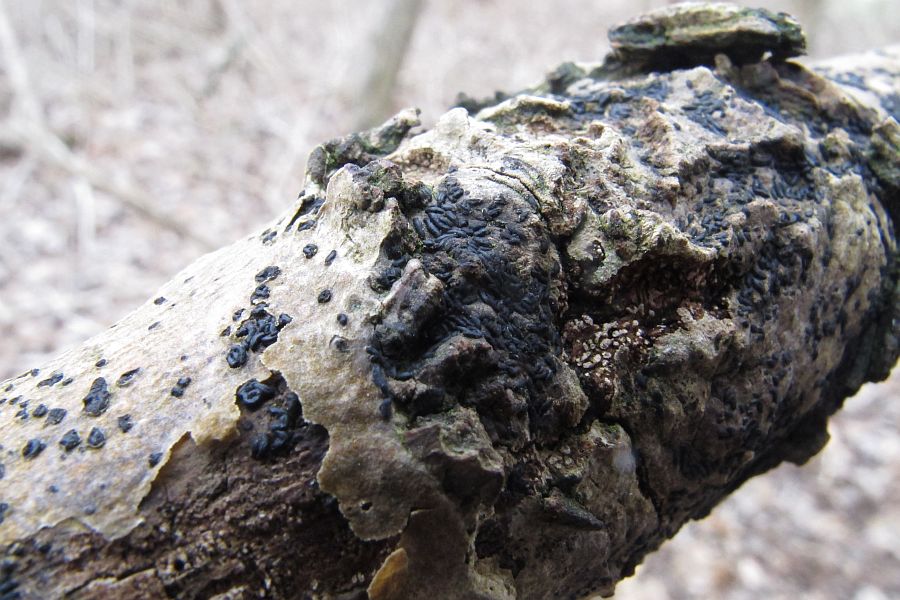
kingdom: Fungi
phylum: Ascomycota
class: Dothideomycetes
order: Hysteriales
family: Hysteriaceae
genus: Hysterium
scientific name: Hysterium acuminatum
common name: almindelig kulmund
